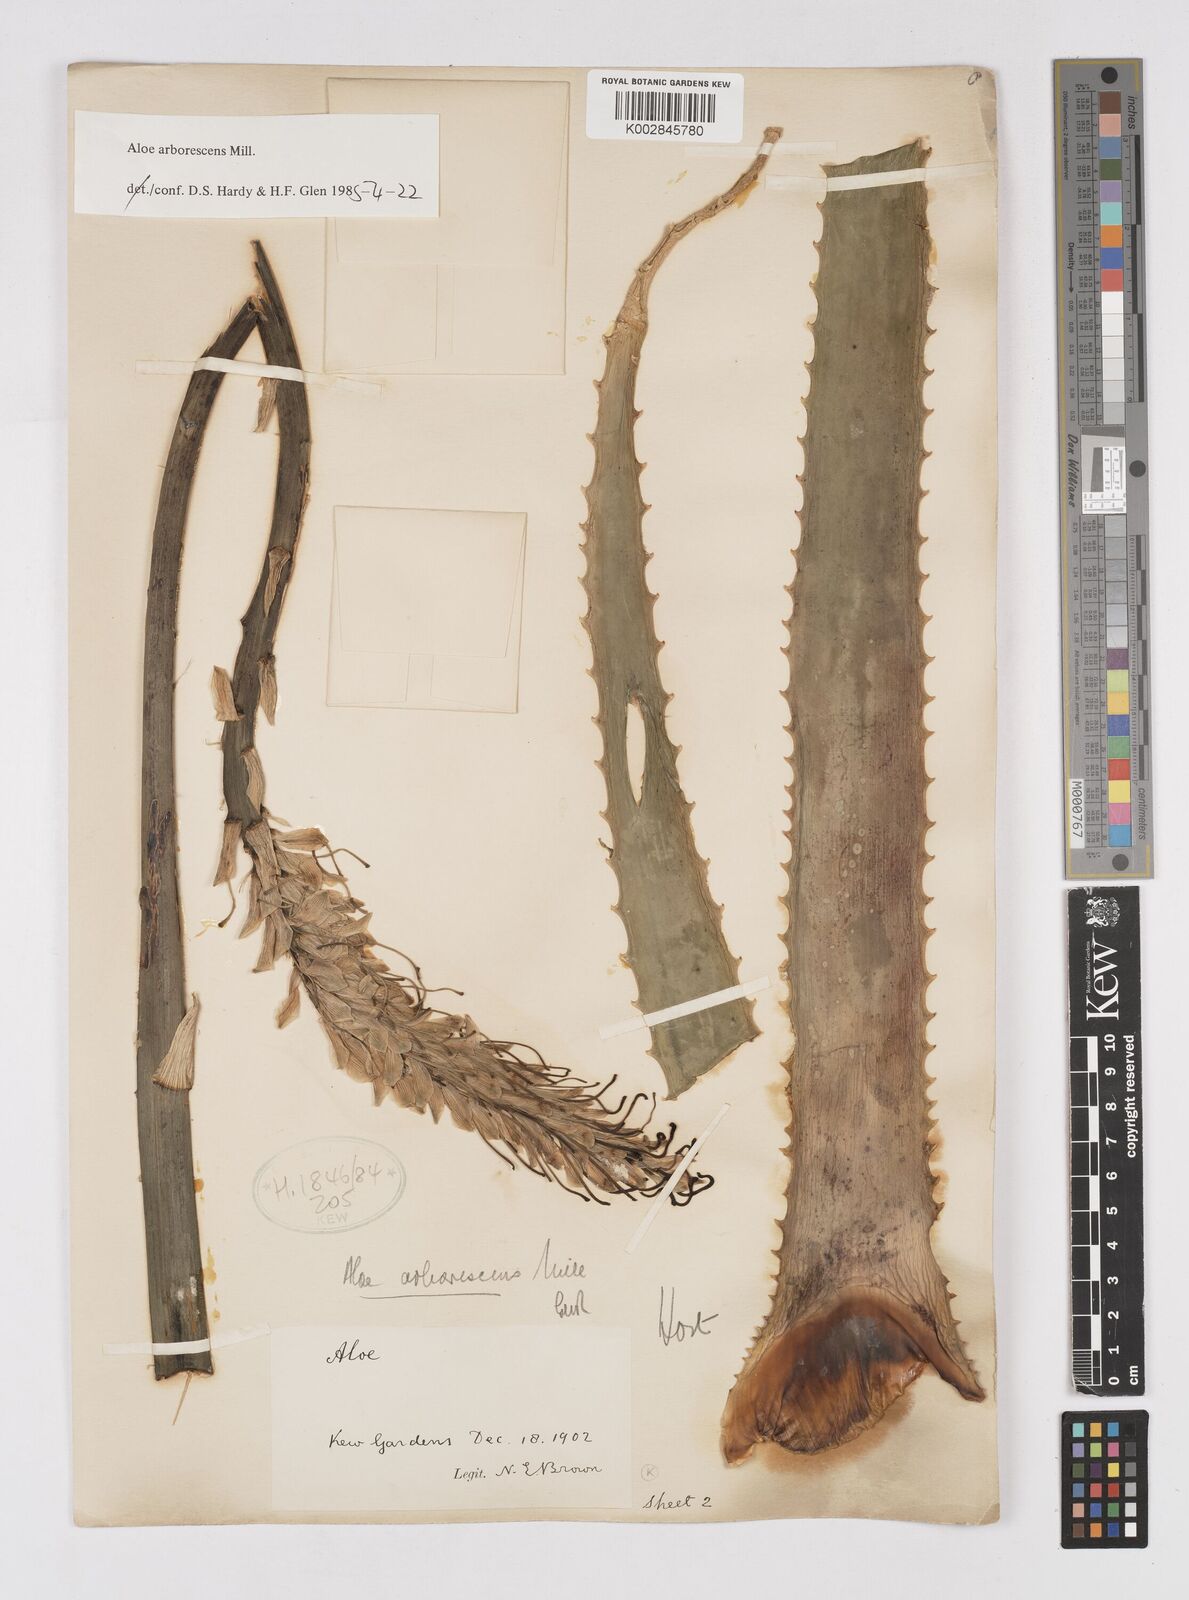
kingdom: Plantae
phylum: Tracheophyta
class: Liliopsida
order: Asparagales
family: Asphodelaceae
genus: Aloe
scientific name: Aloe vera
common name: Barbados aloe
